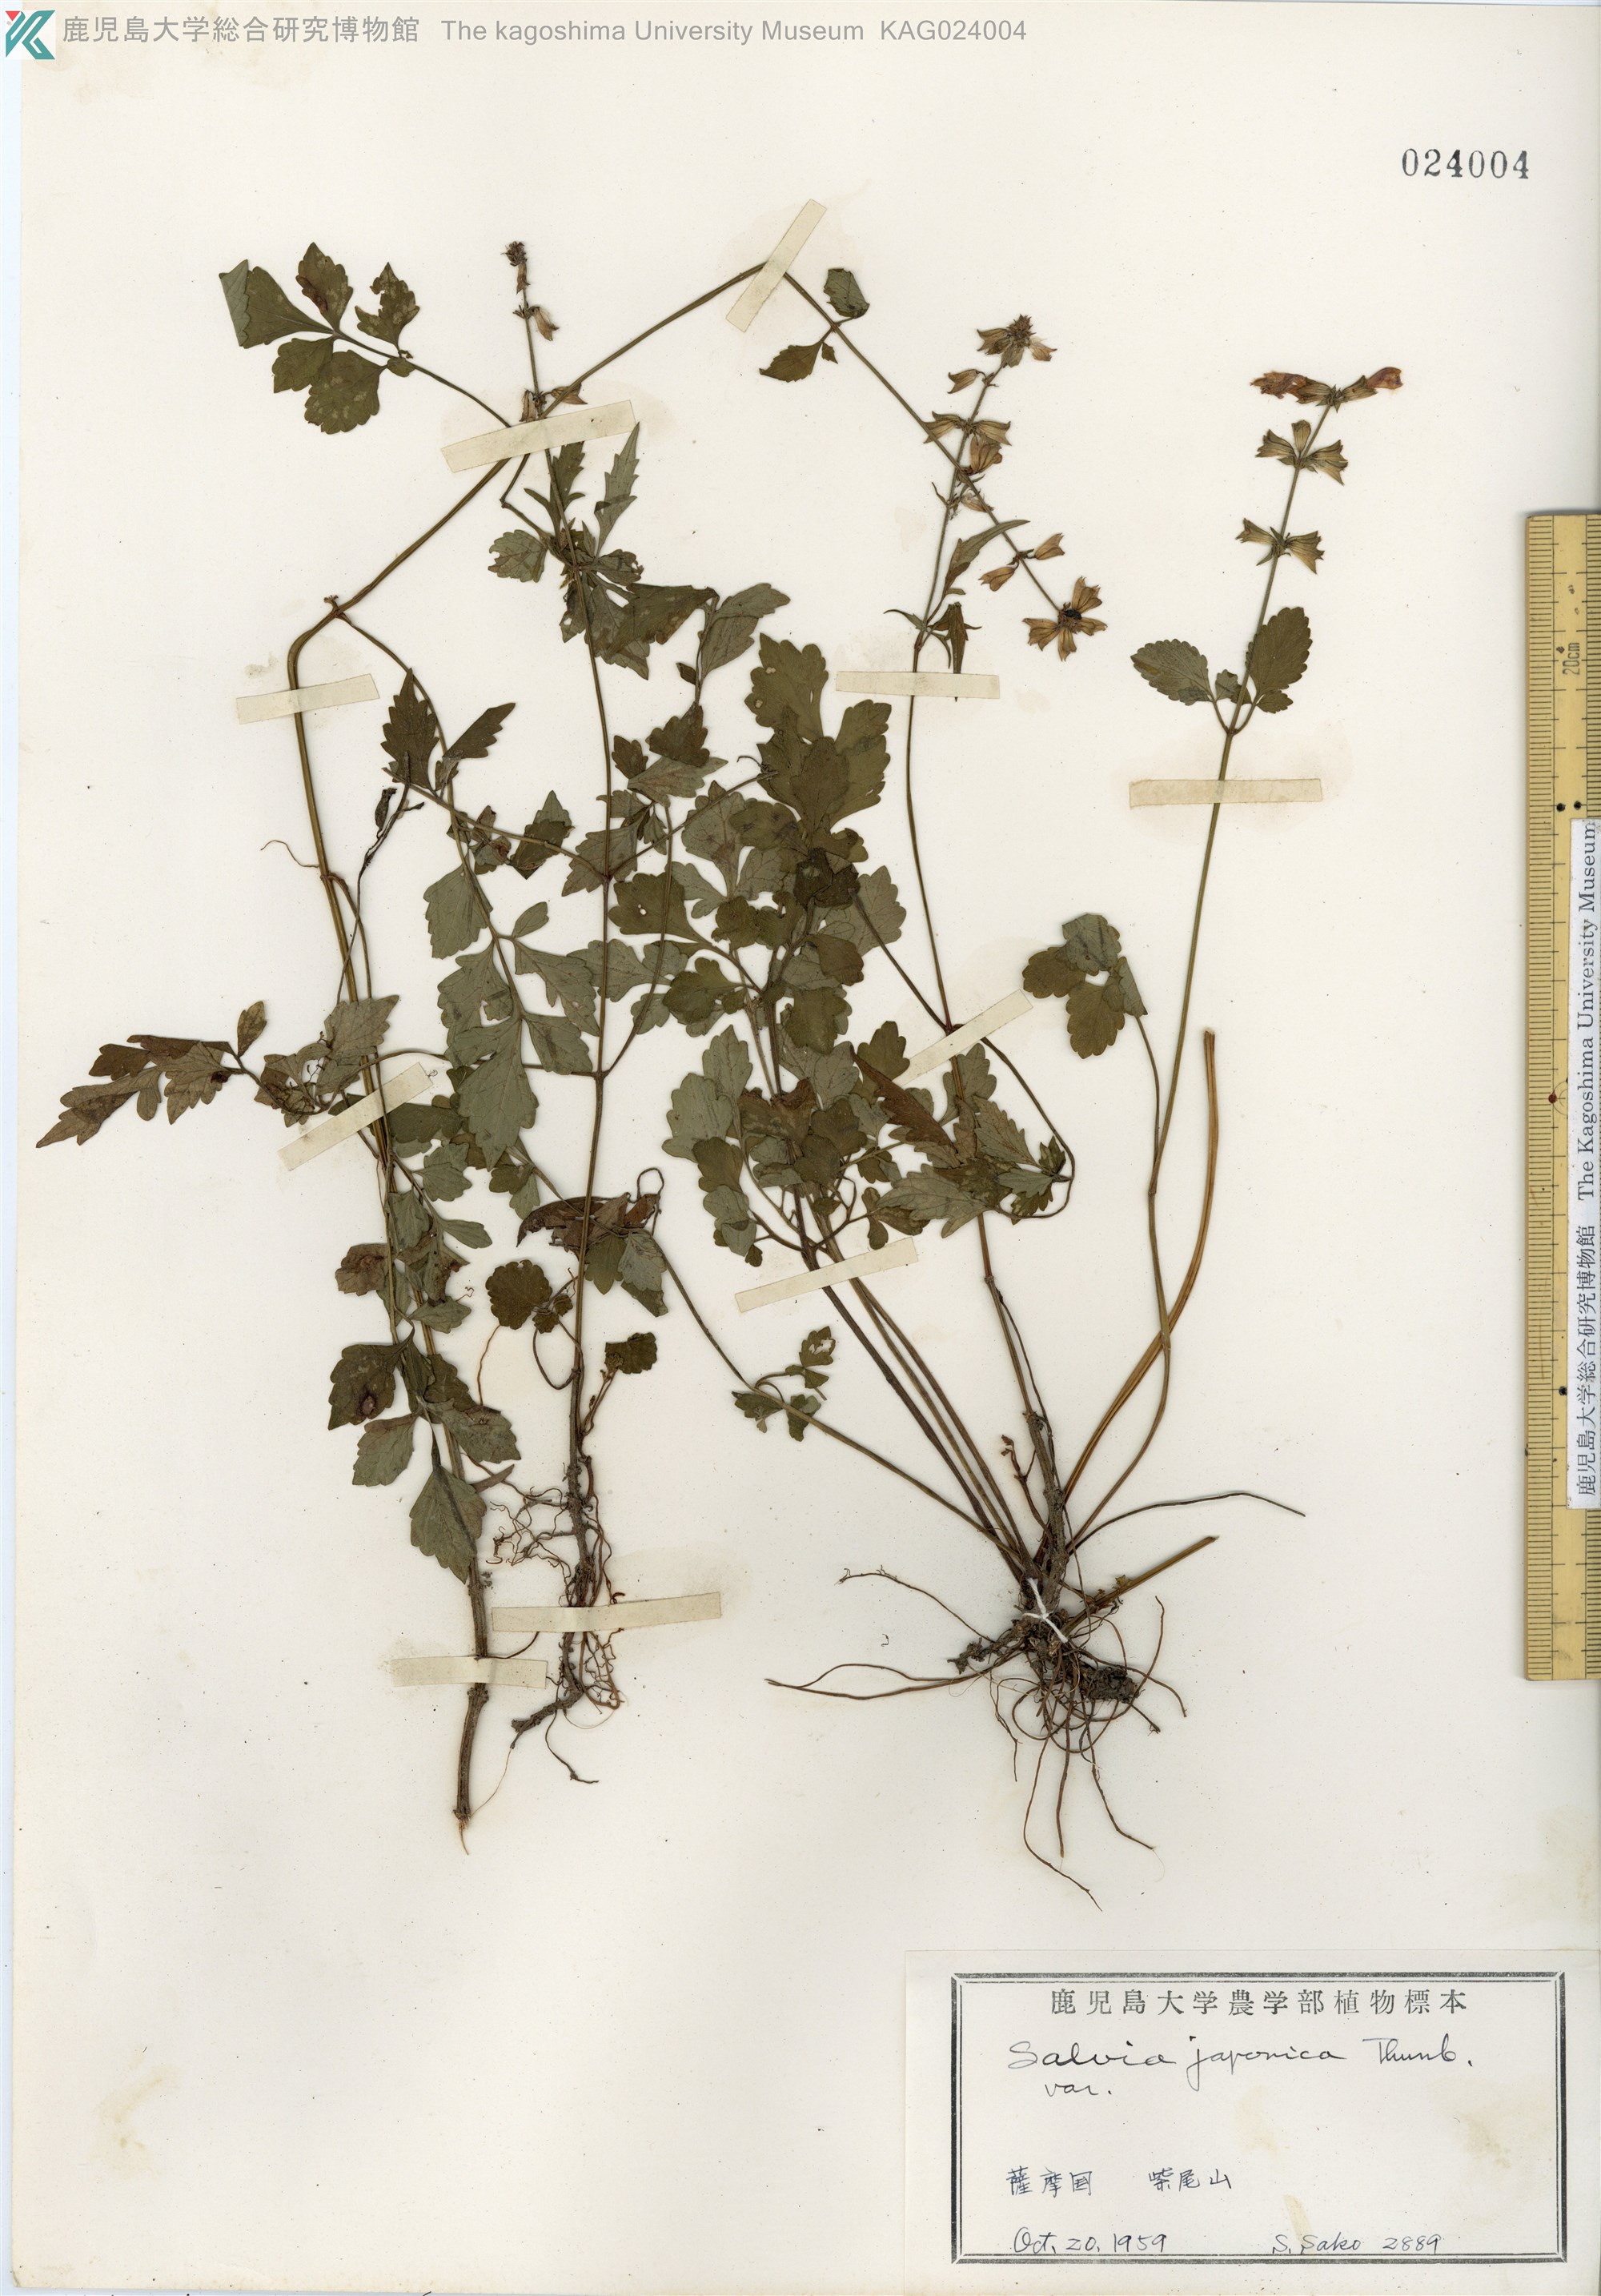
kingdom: Plantae
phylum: Tracheophyta
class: Magnoliopsida
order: Lamiales
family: Lamiaceae
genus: Salvia
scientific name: Salvia japonica
